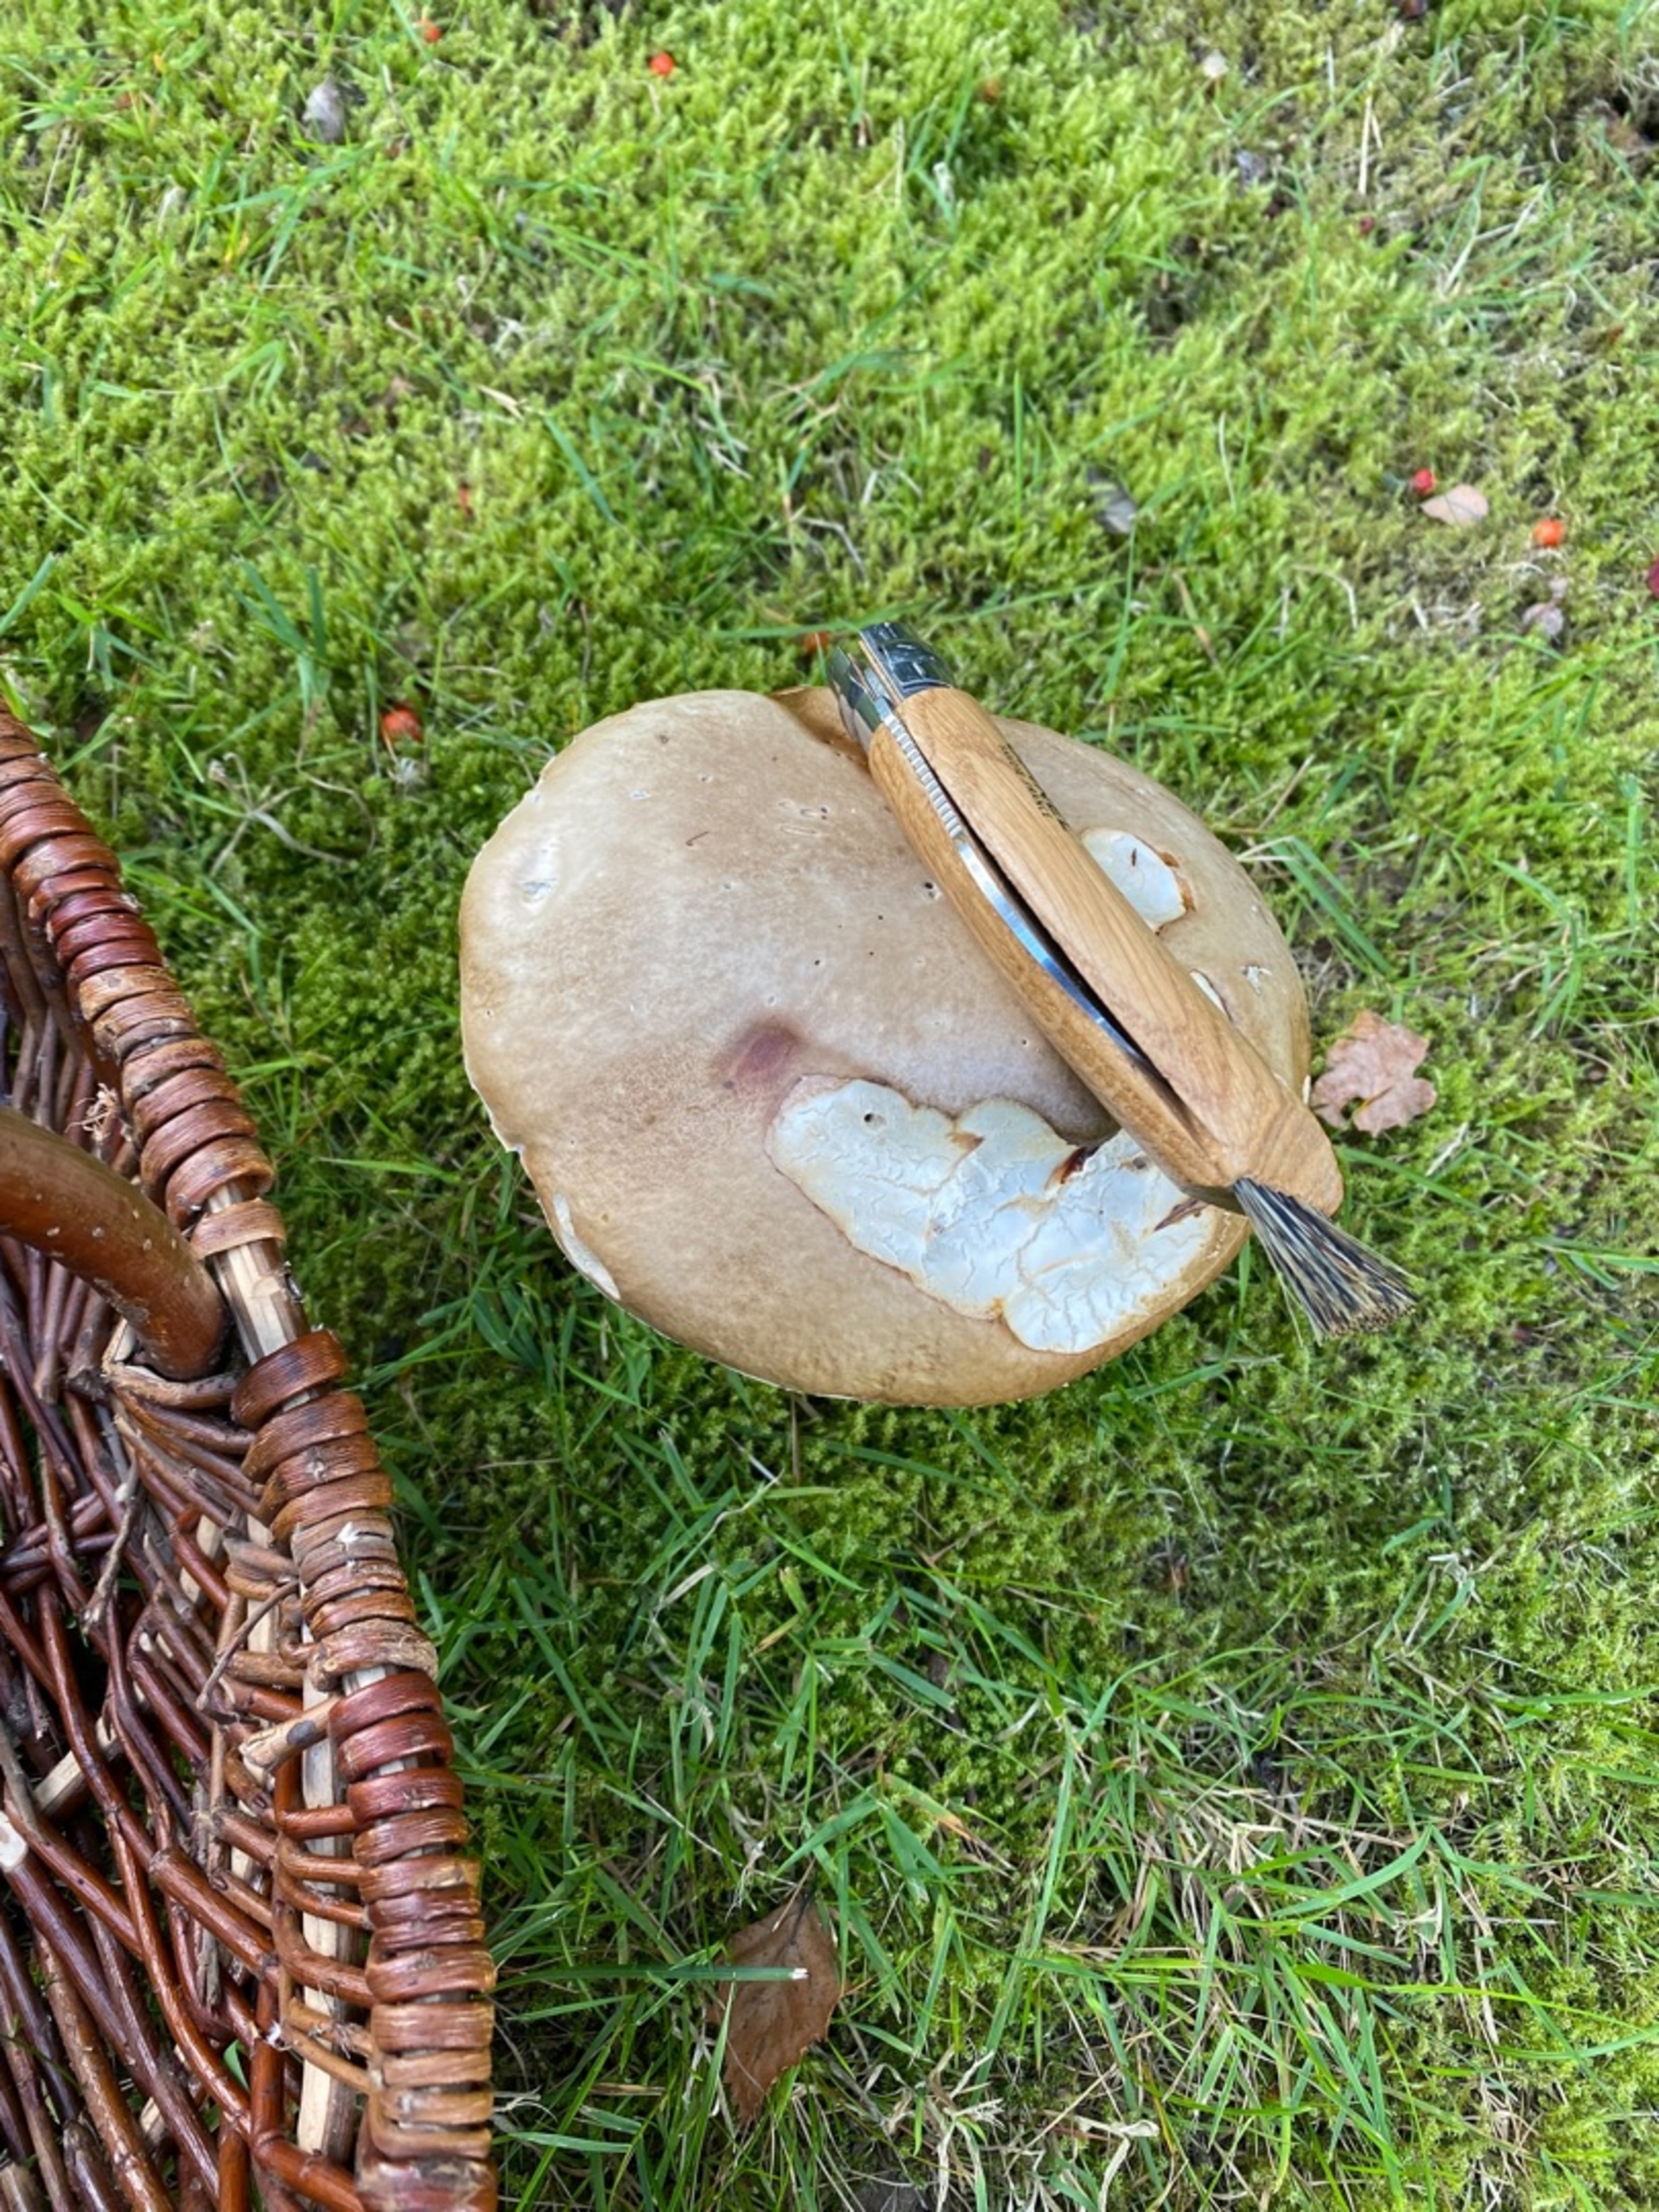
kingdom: Fungi
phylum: Basidiomycota
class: Agaricomycetes
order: Boletales
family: Boletaceae
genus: Boletus
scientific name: Boletus edulis
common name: Spiselig rørhat/karl johan
